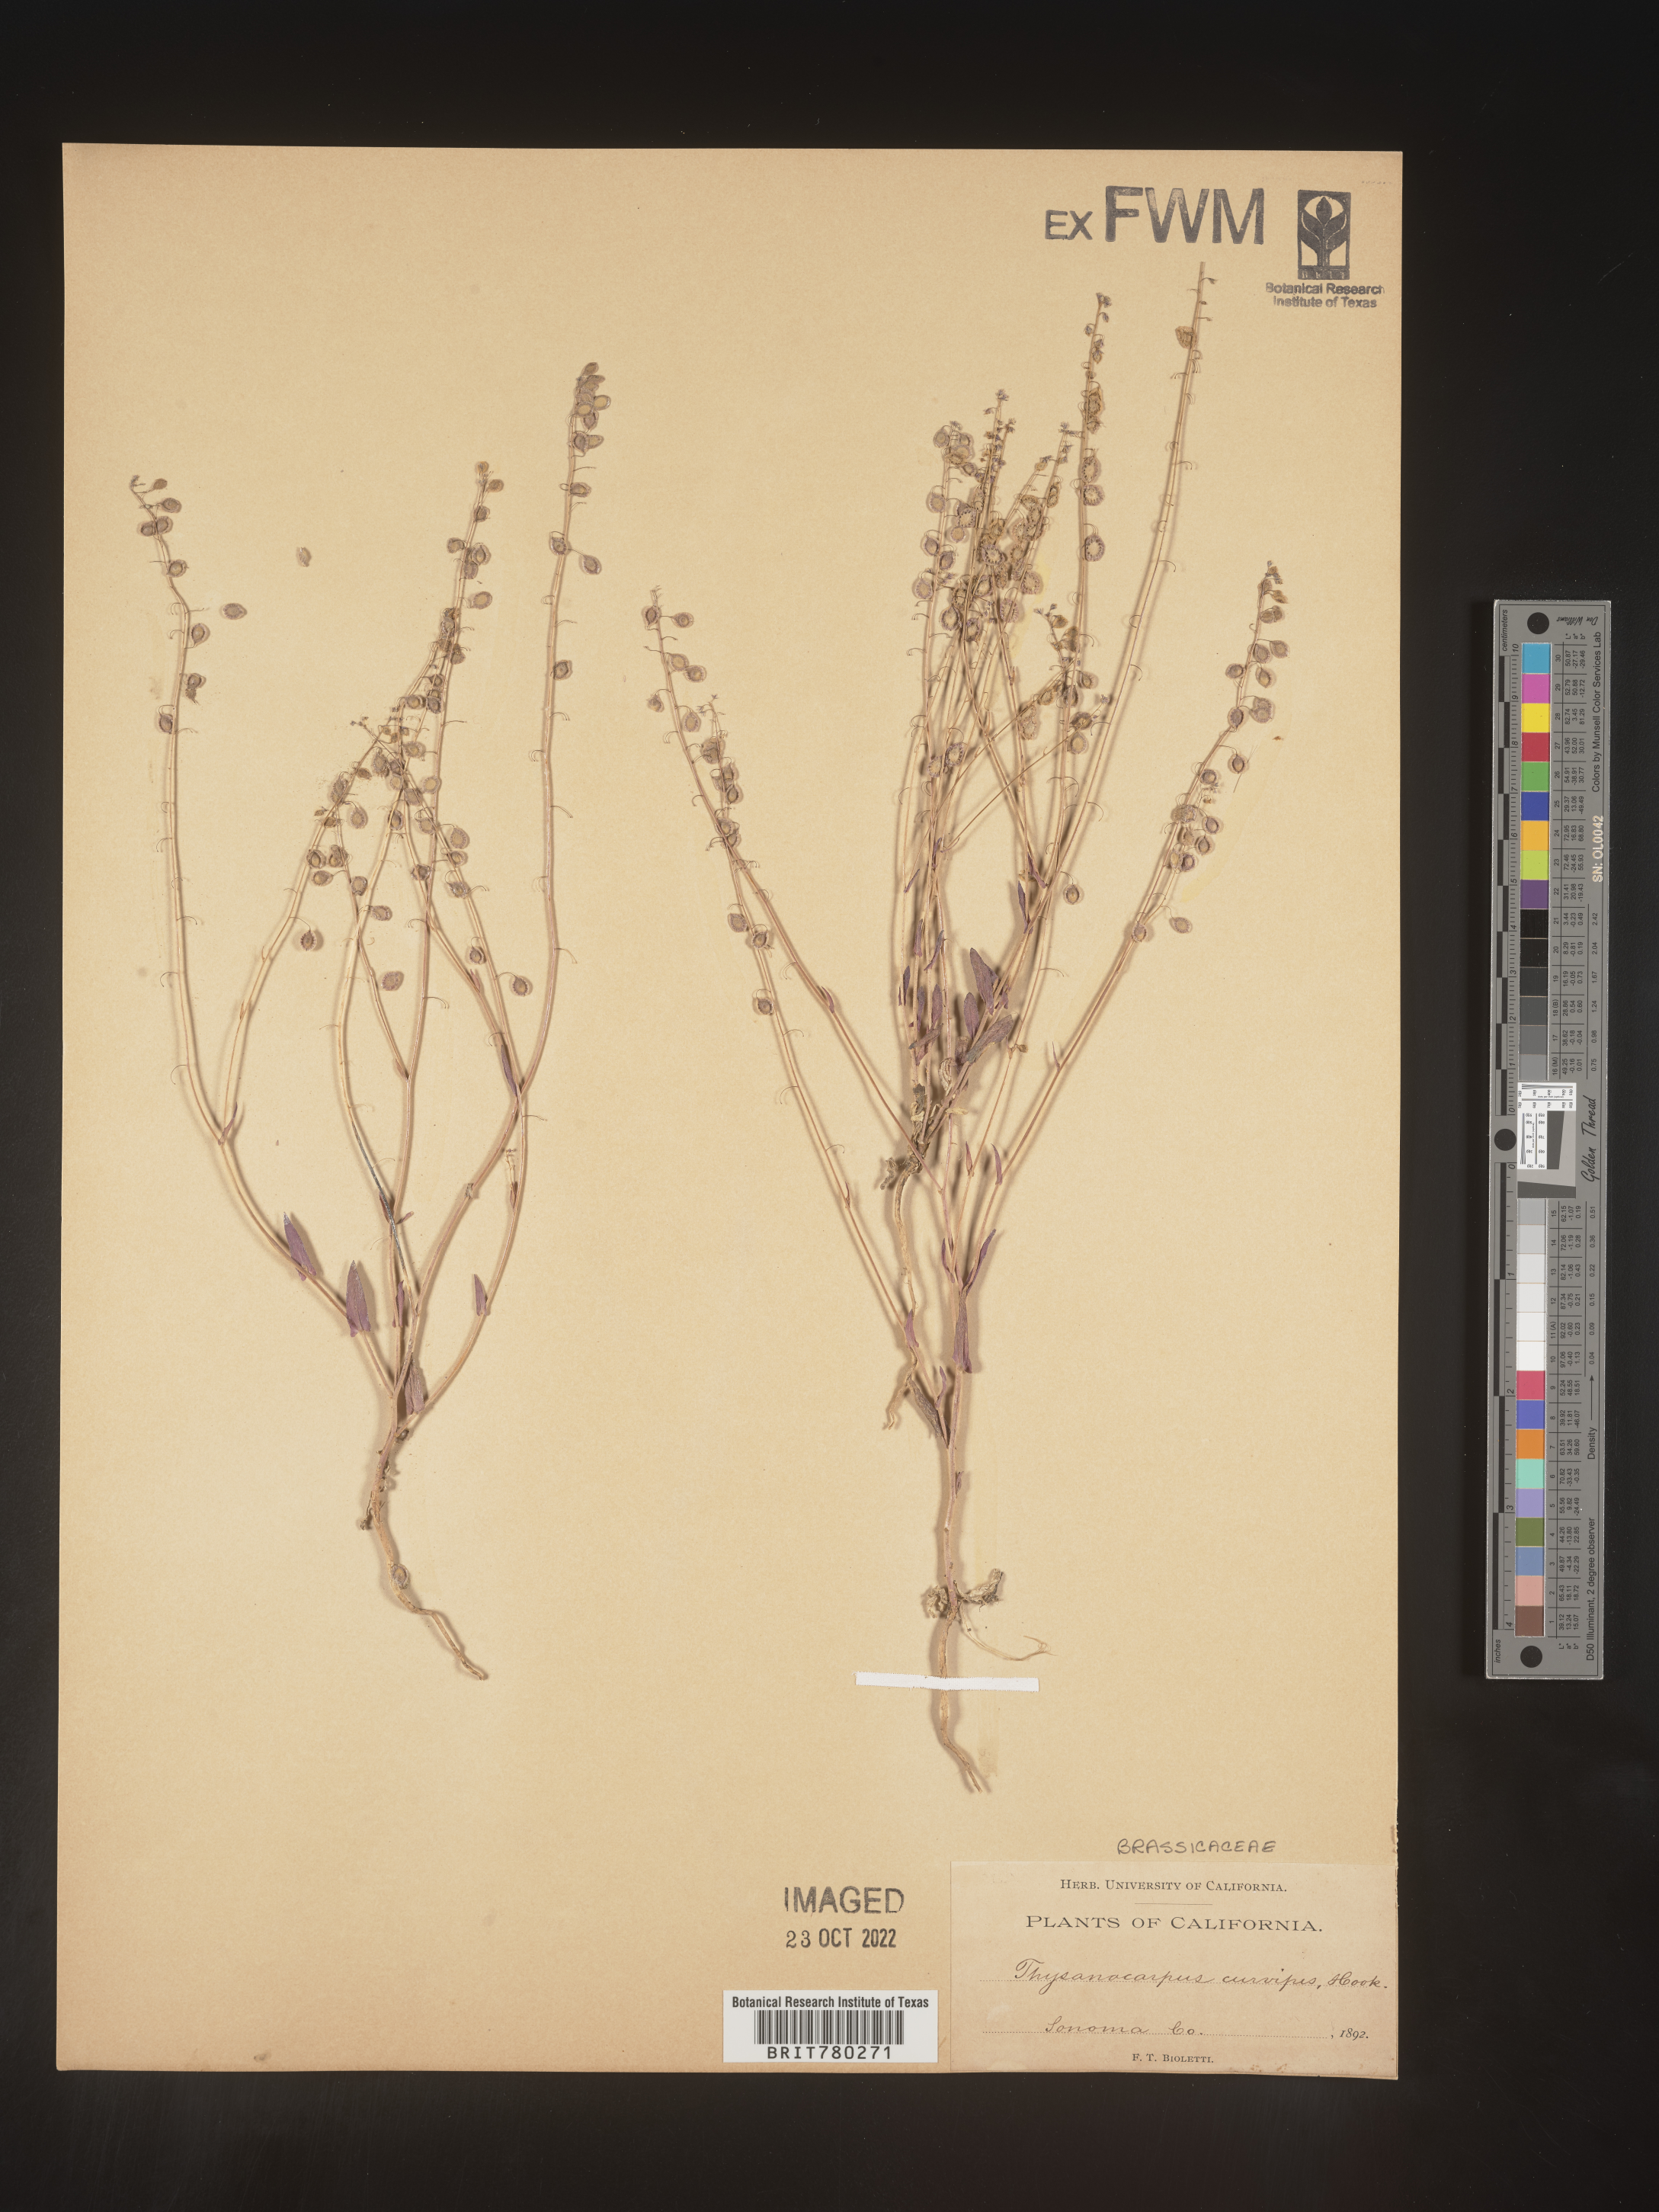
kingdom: Plantae
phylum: Tracheophyta
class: Magnoliopsida
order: Brassicales
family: Brassicaceae
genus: Thysanocarpus
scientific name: Thysanocarpus
